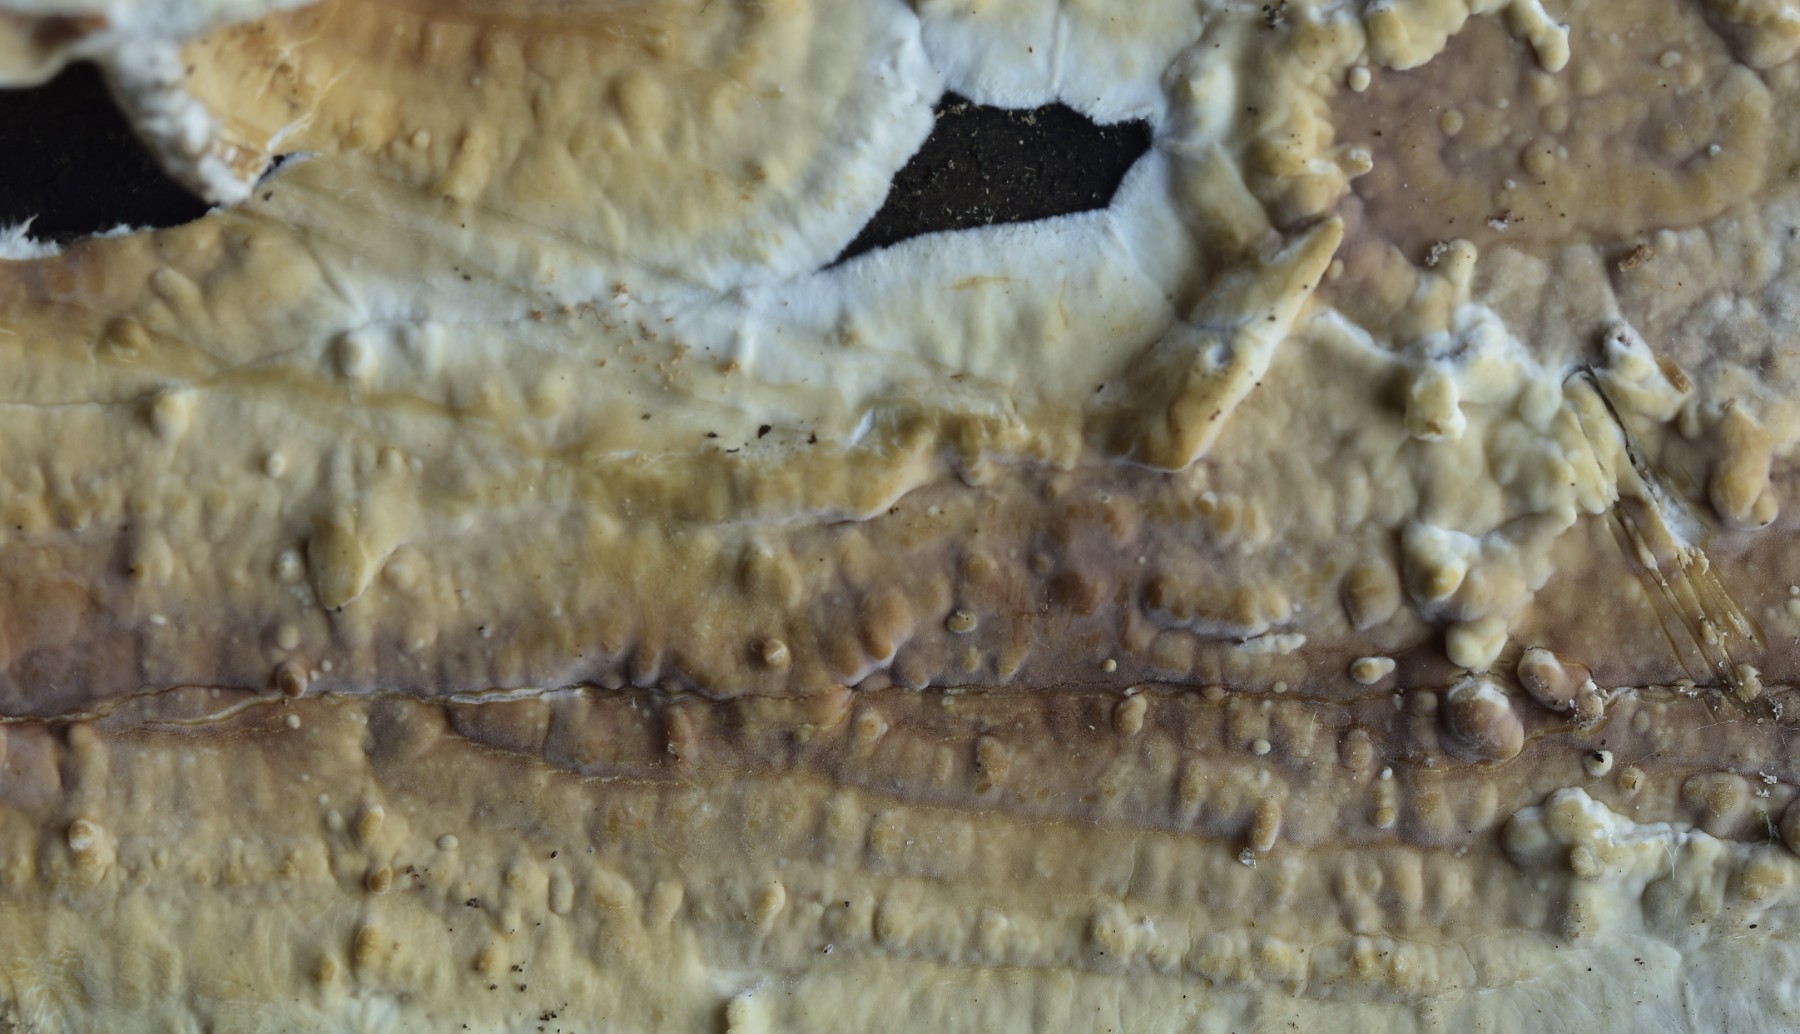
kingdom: Fungi
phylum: Basidiomycota
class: Agaricomycetes
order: Polyporales
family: Dacryobolaceae
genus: Dacryobolus
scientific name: Dacryobolus karstenii
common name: glat vulkanskorpe
